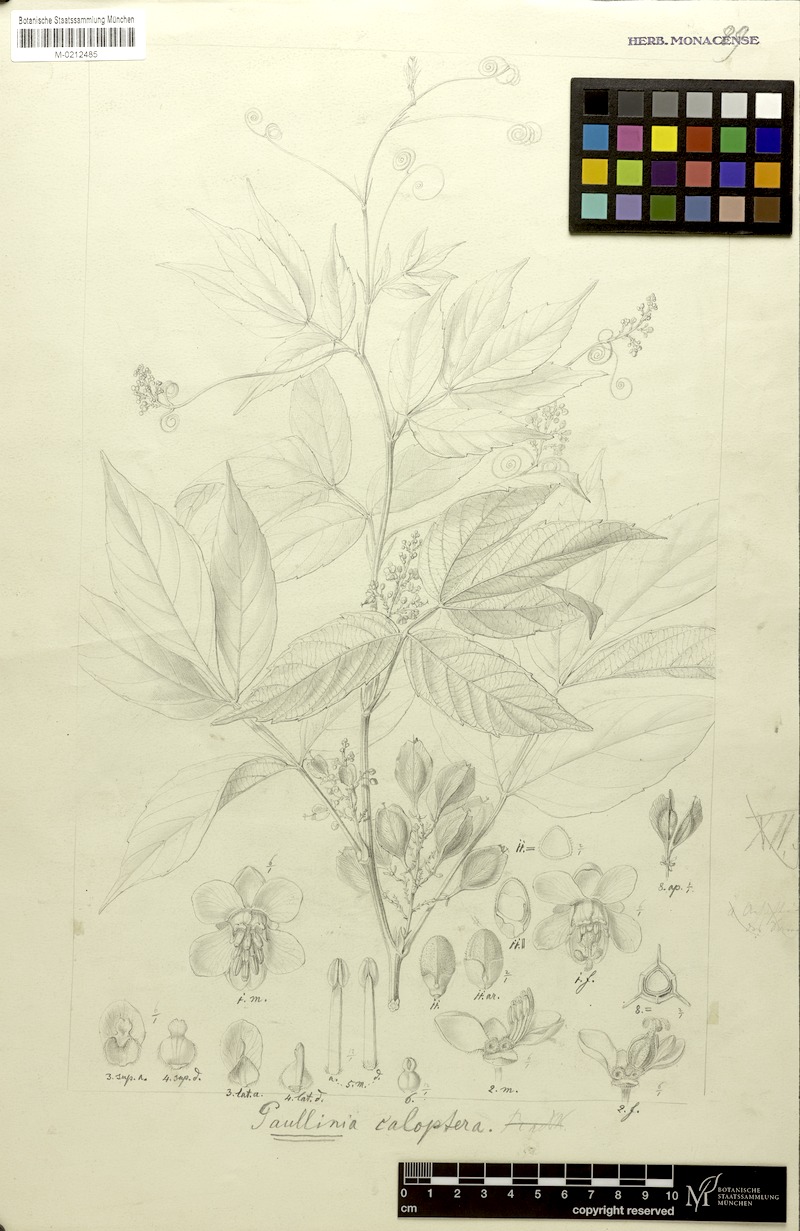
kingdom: Plantae
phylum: Tracheophyta
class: Magnoliopsida
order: Sapindales
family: Sapindaceae
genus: Paullinia
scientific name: Paullinia caloptera
